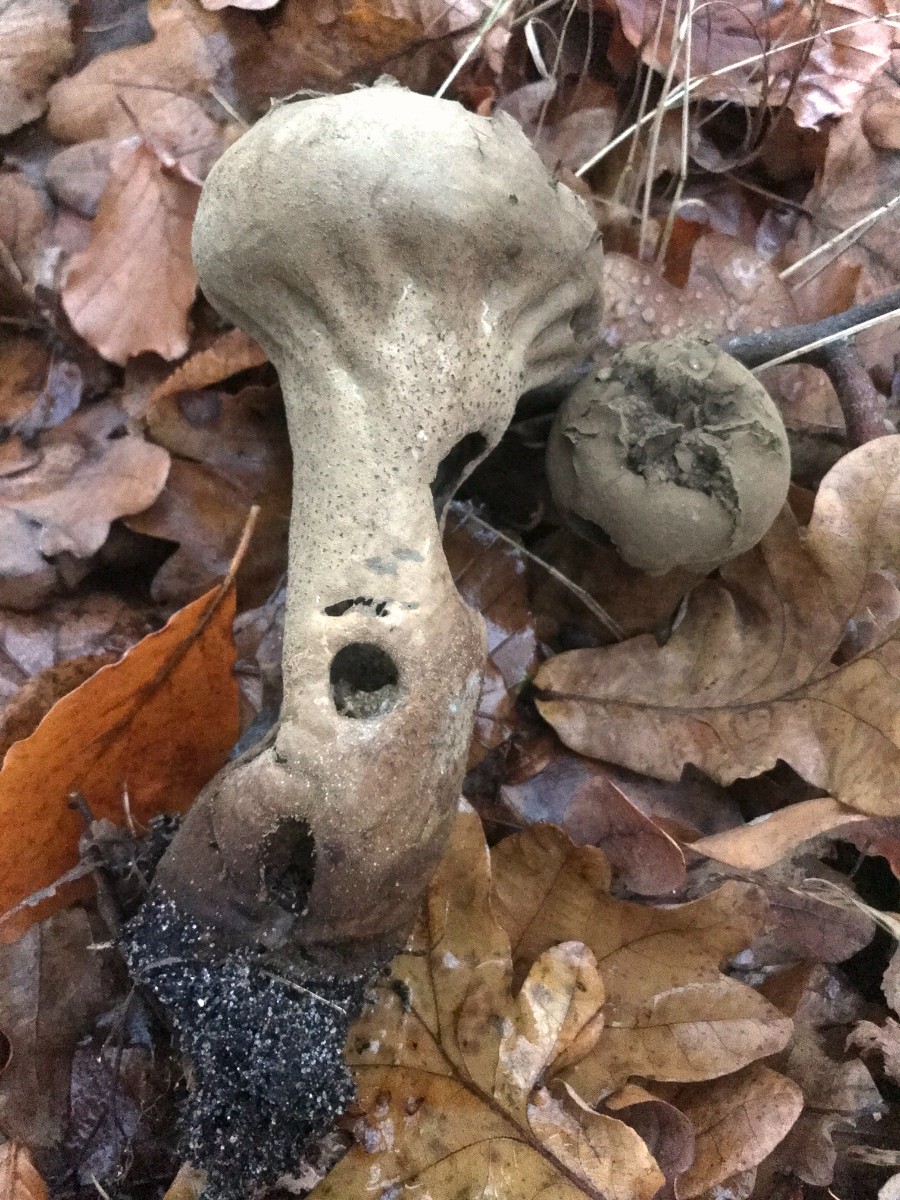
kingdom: Fungi
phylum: Basidiomycota
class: Agaricomycetes
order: Agaricales
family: Lycoperdaceae
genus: Lycoperdon
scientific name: Lycoperdon excipuliforme
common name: højstokket støvbold
